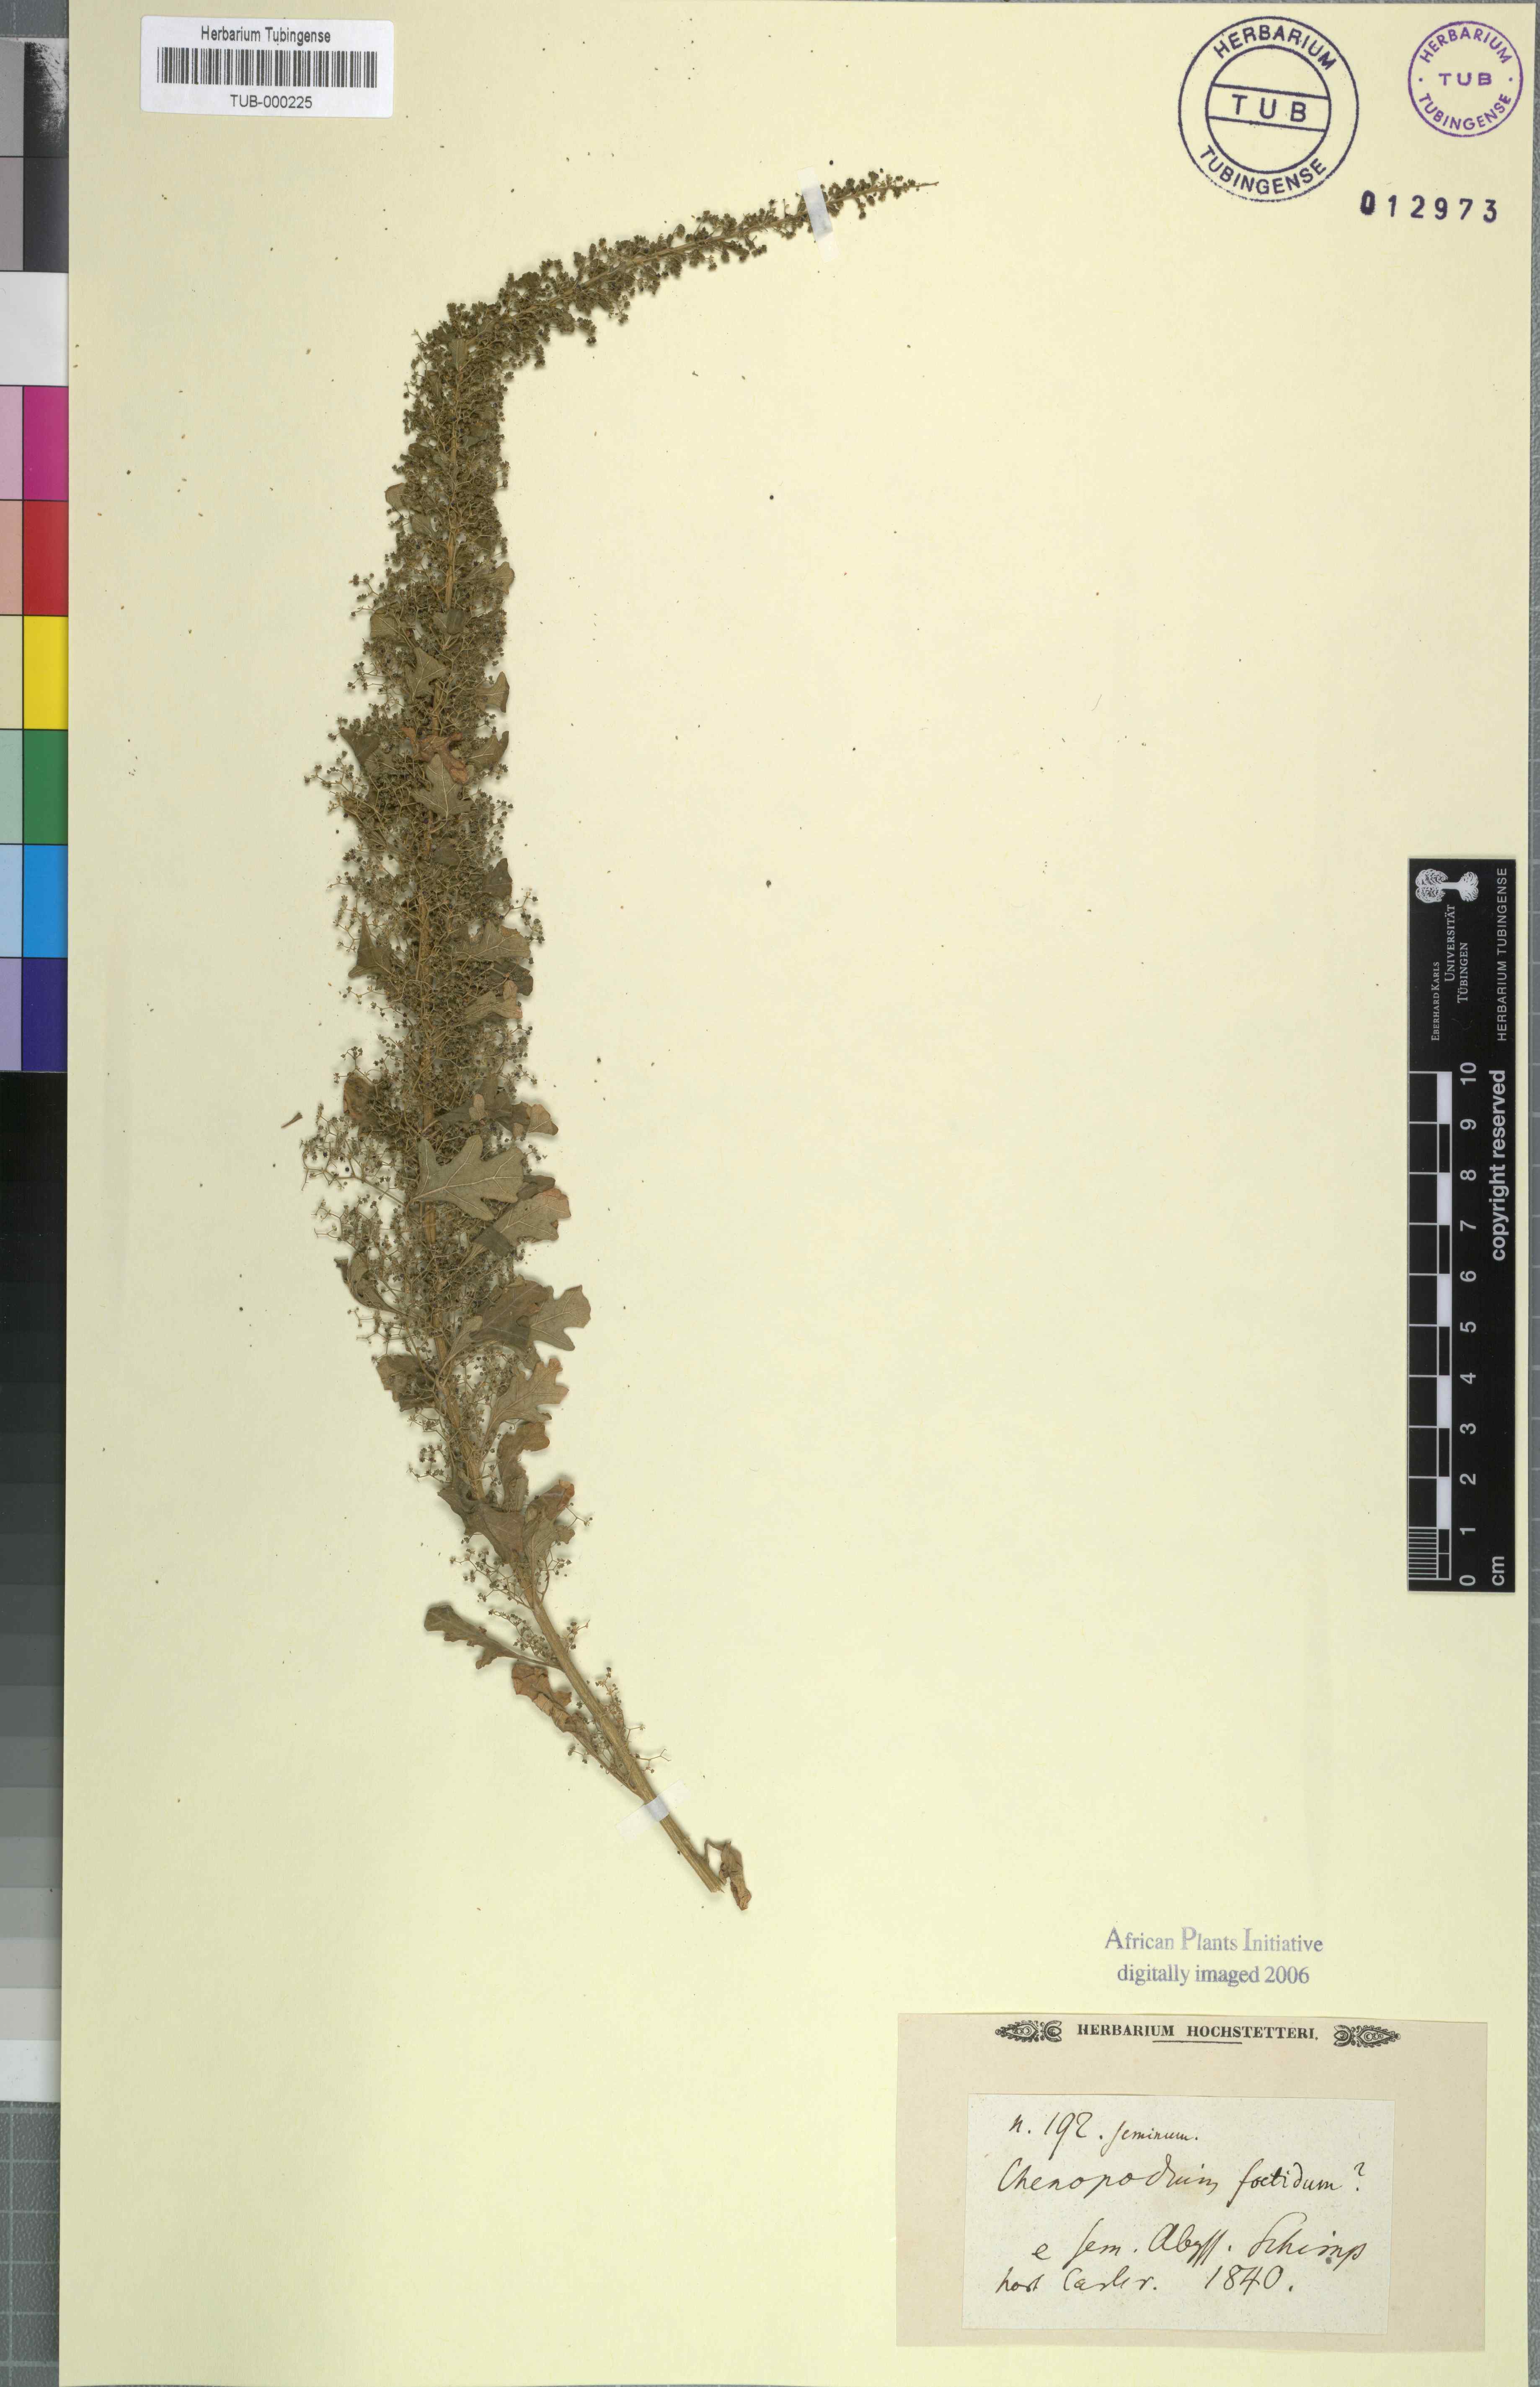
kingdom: Plantae
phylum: Tracheophyta
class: Magnoliopsida
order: Caryophyllales
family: Amaranthaceae
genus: Dysphania
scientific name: Dysphania schraderiana
